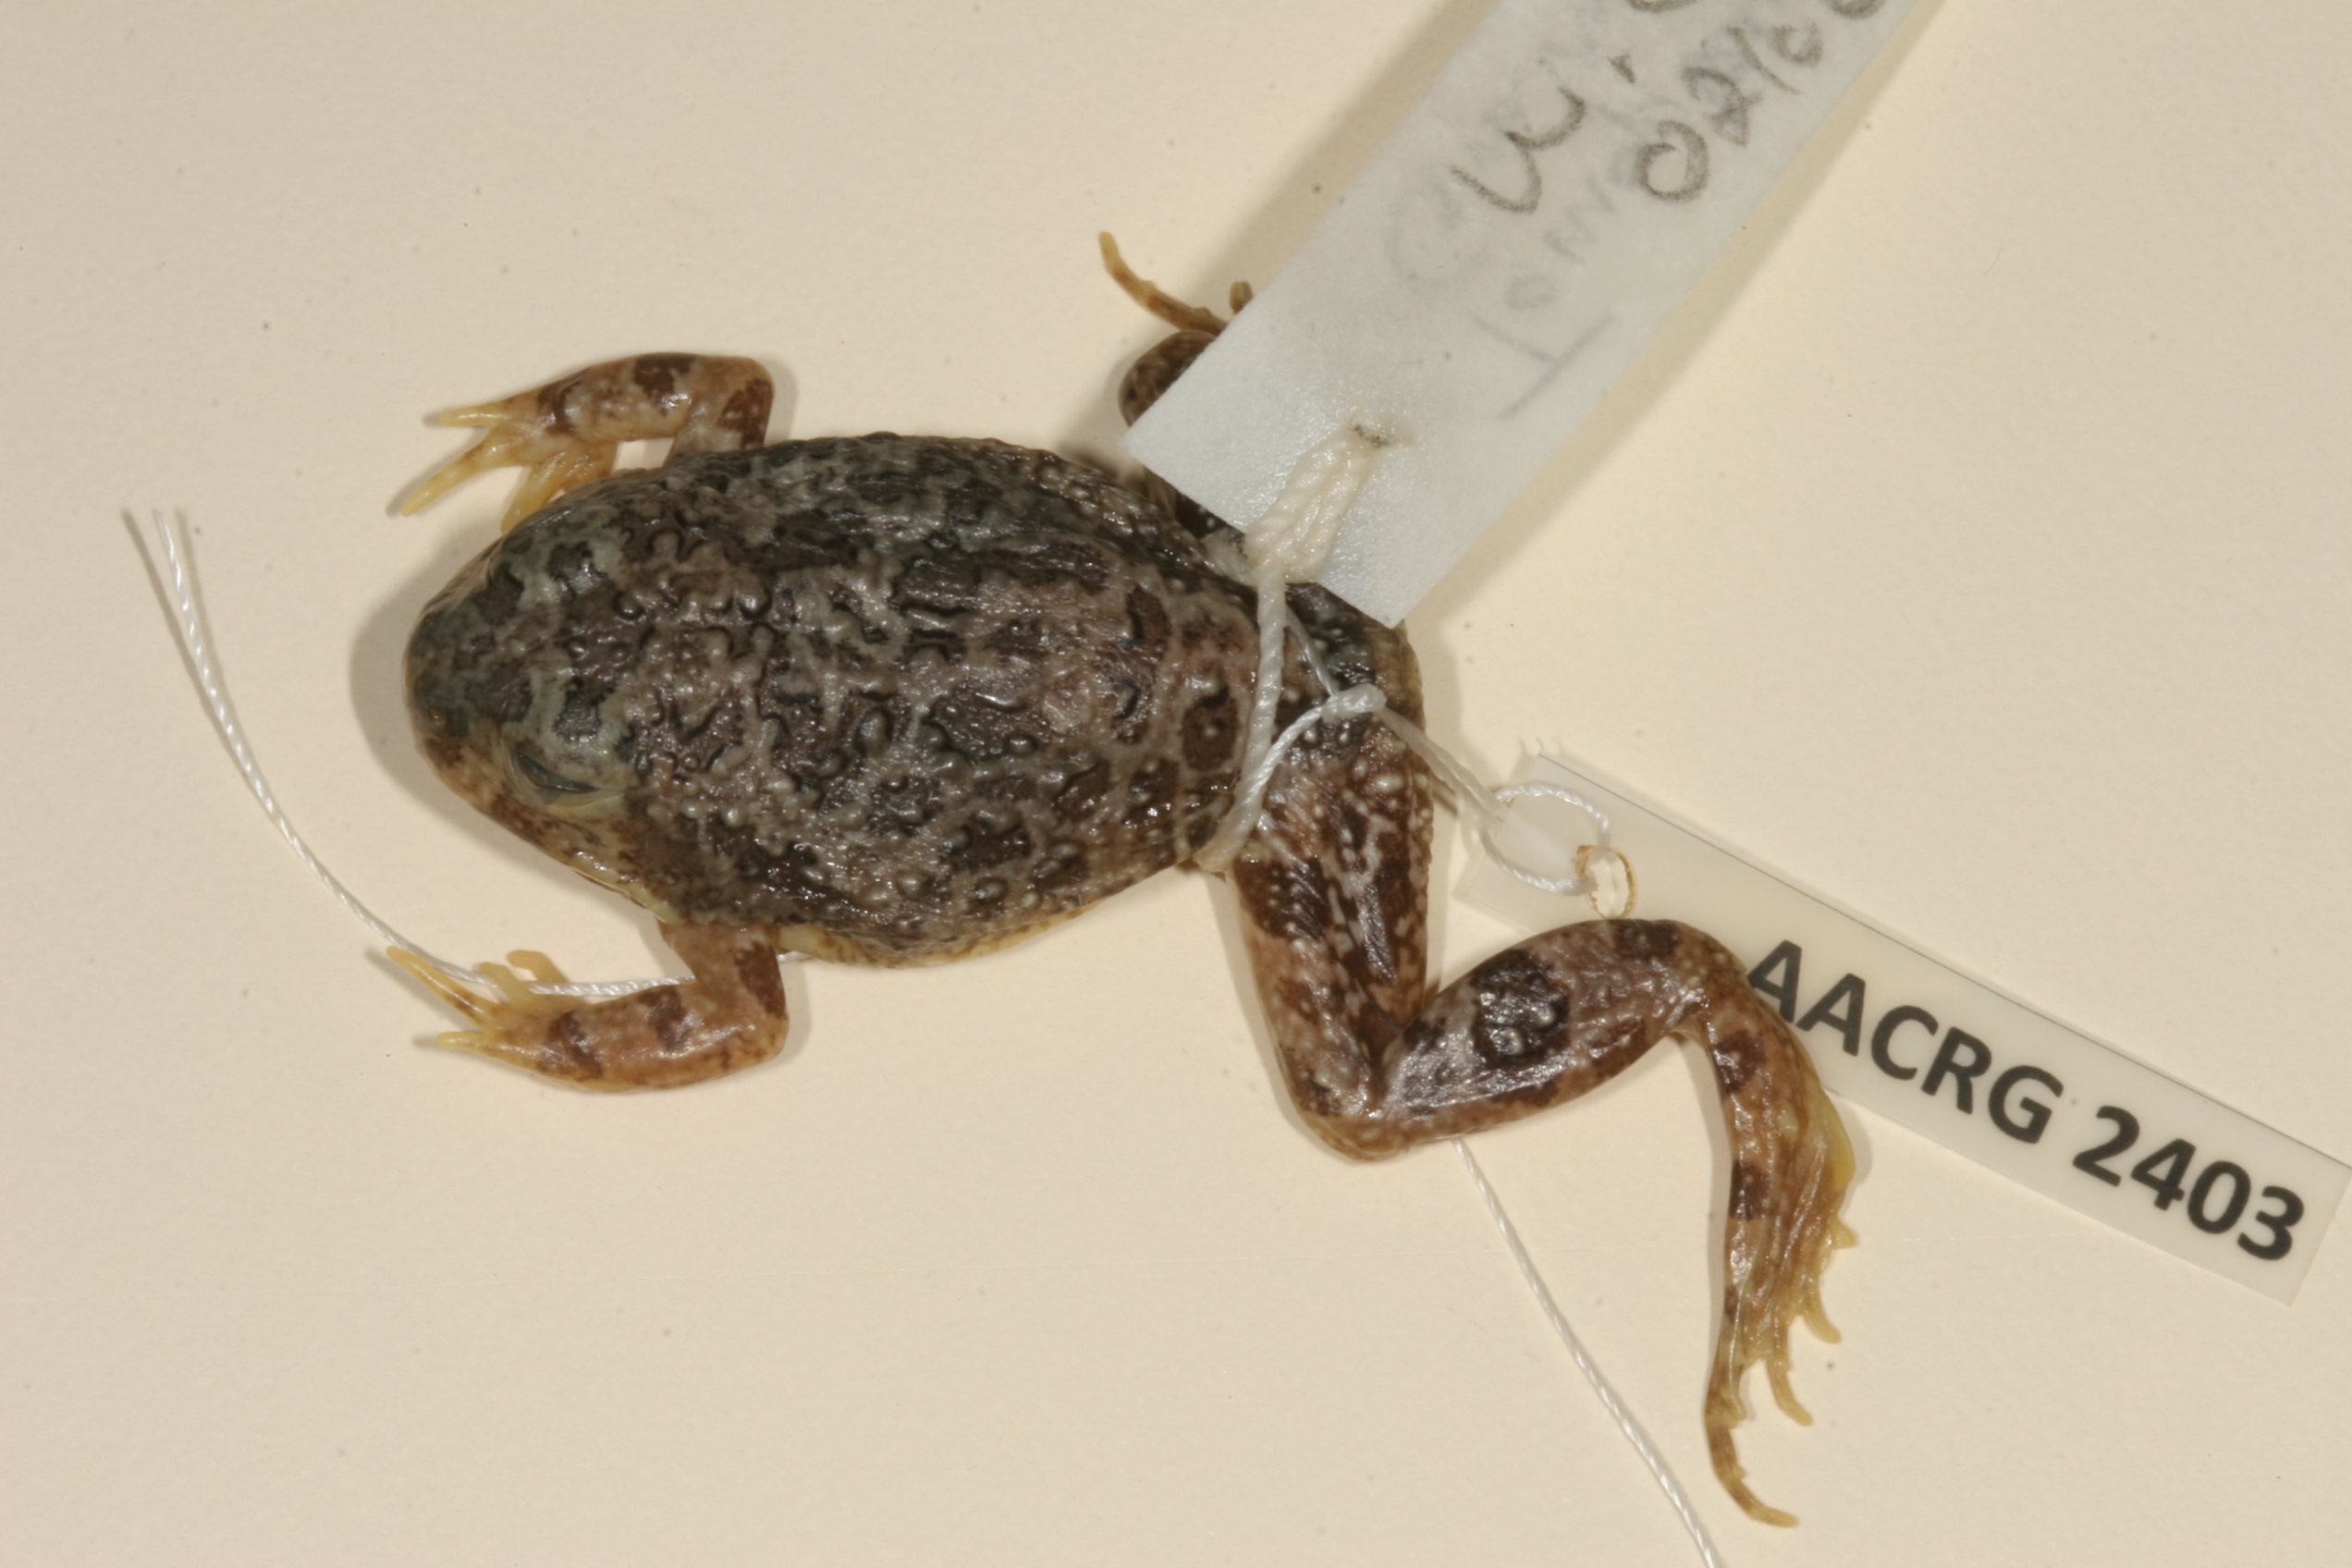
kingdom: Animalia
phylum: Chordata
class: Amphibia
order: Anura
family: Pyxicephalidae
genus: Tomopterna
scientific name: Tomopterna tandyi
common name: Tandy's sand frog
